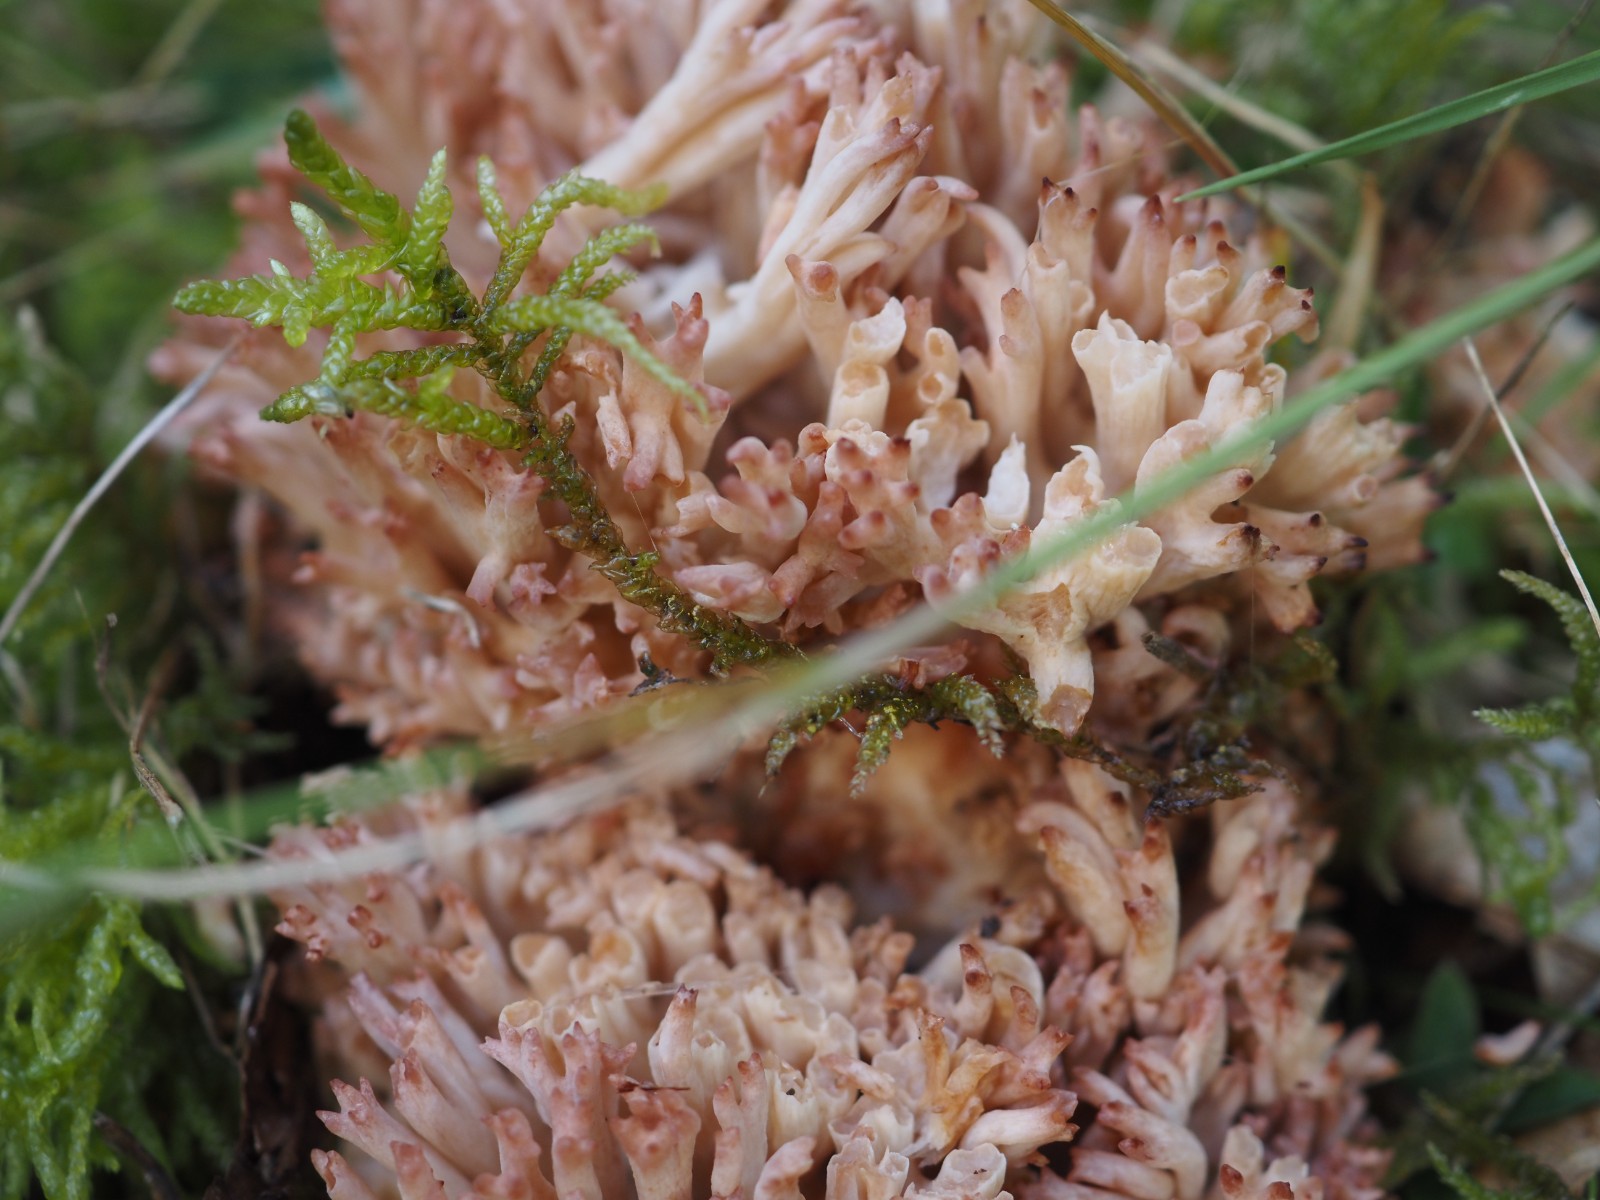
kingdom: Fungi
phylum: Basidiomycota
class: Agaricomycetes
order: Gomphales
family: Gomphaceae
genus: Ramaria
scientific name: Ramaria botrytis
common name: drue-koralsvamp
